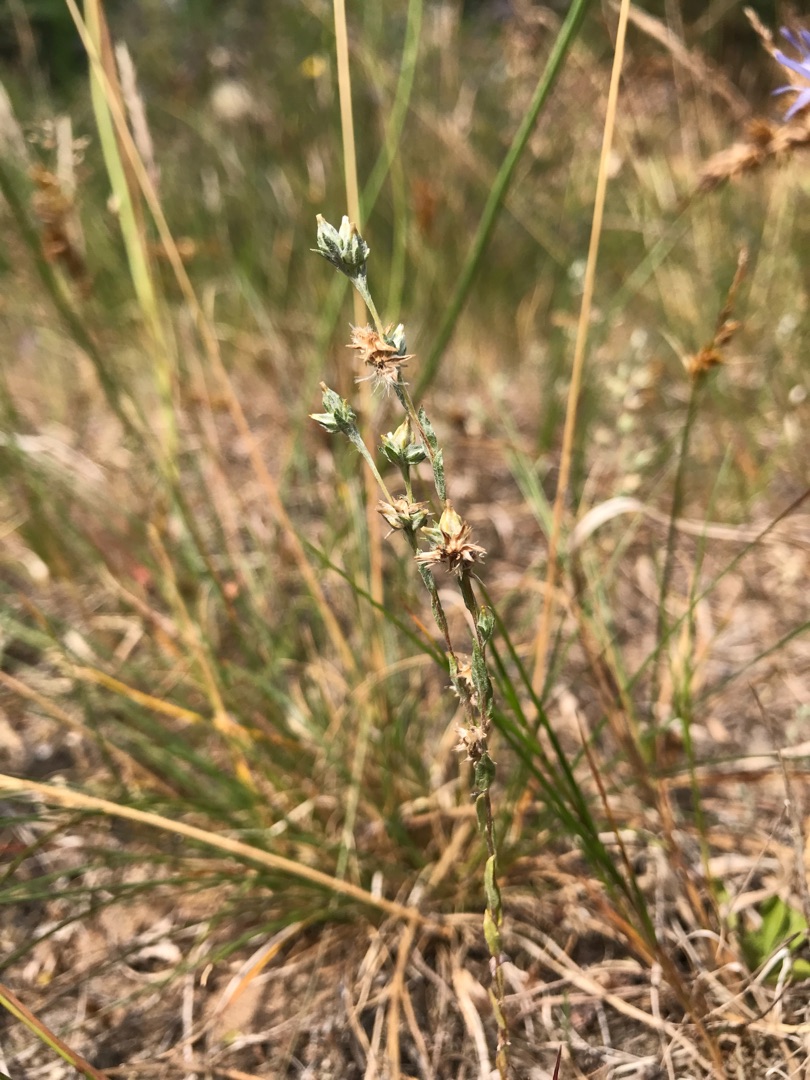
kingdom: Plantae
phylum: Tracheophyta
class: Magnoliopsida
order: Asterales
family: Asteraceae
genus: Logfia
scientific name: Logfia minima
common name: Liden museurt
